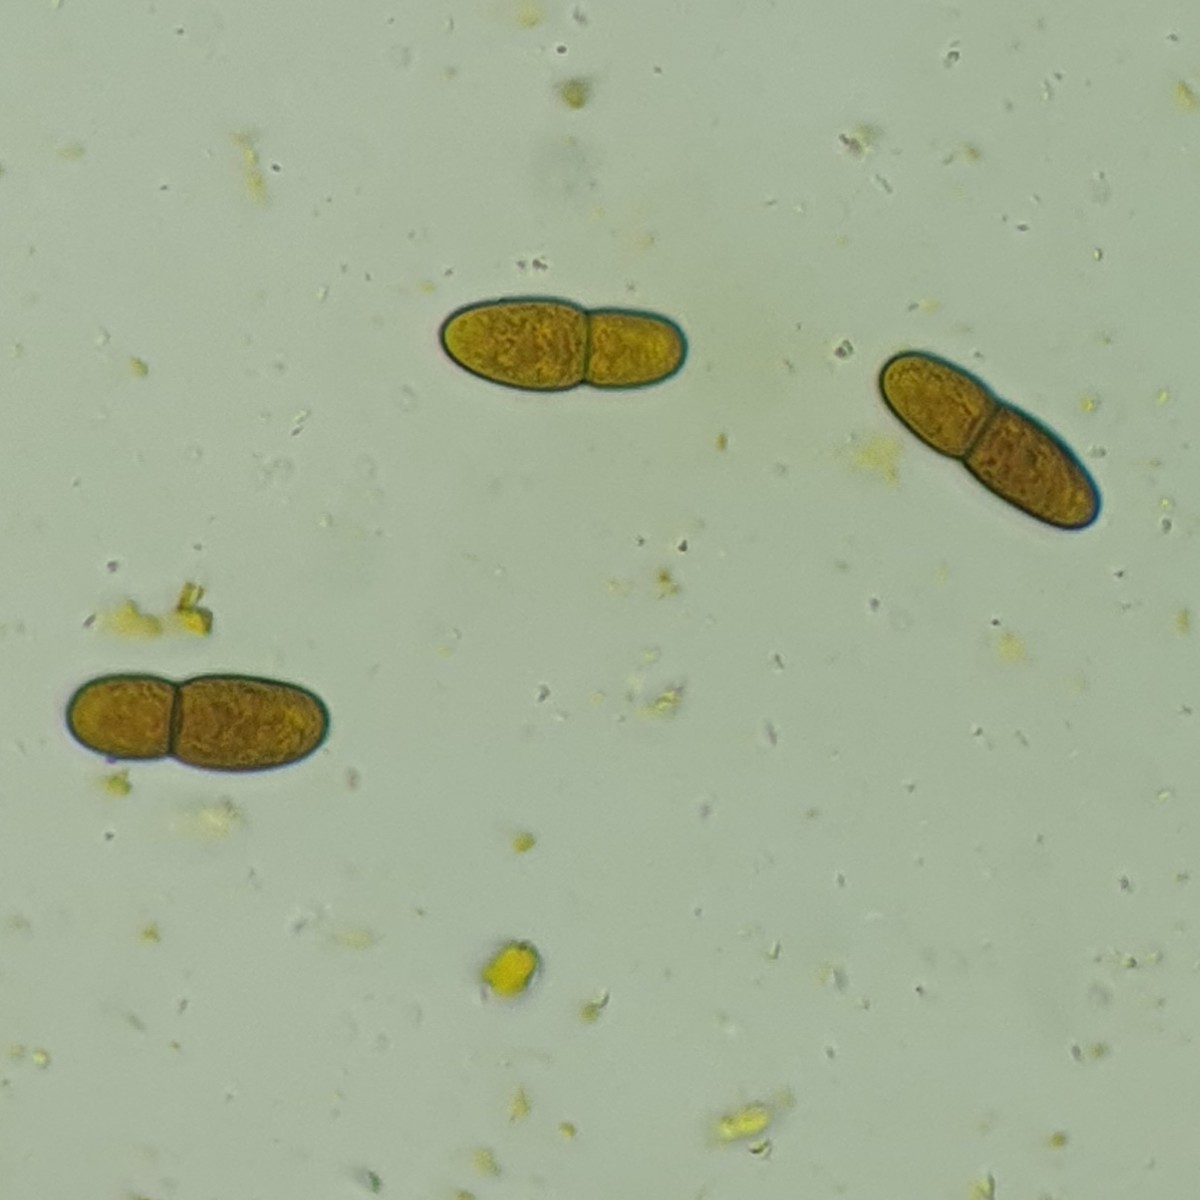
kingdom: Fungi
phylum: Ascomycota
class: Dothideomycetes
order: Dothideales
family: Dothideaceae
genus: Dothidea
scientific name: Dothidea sambuci
